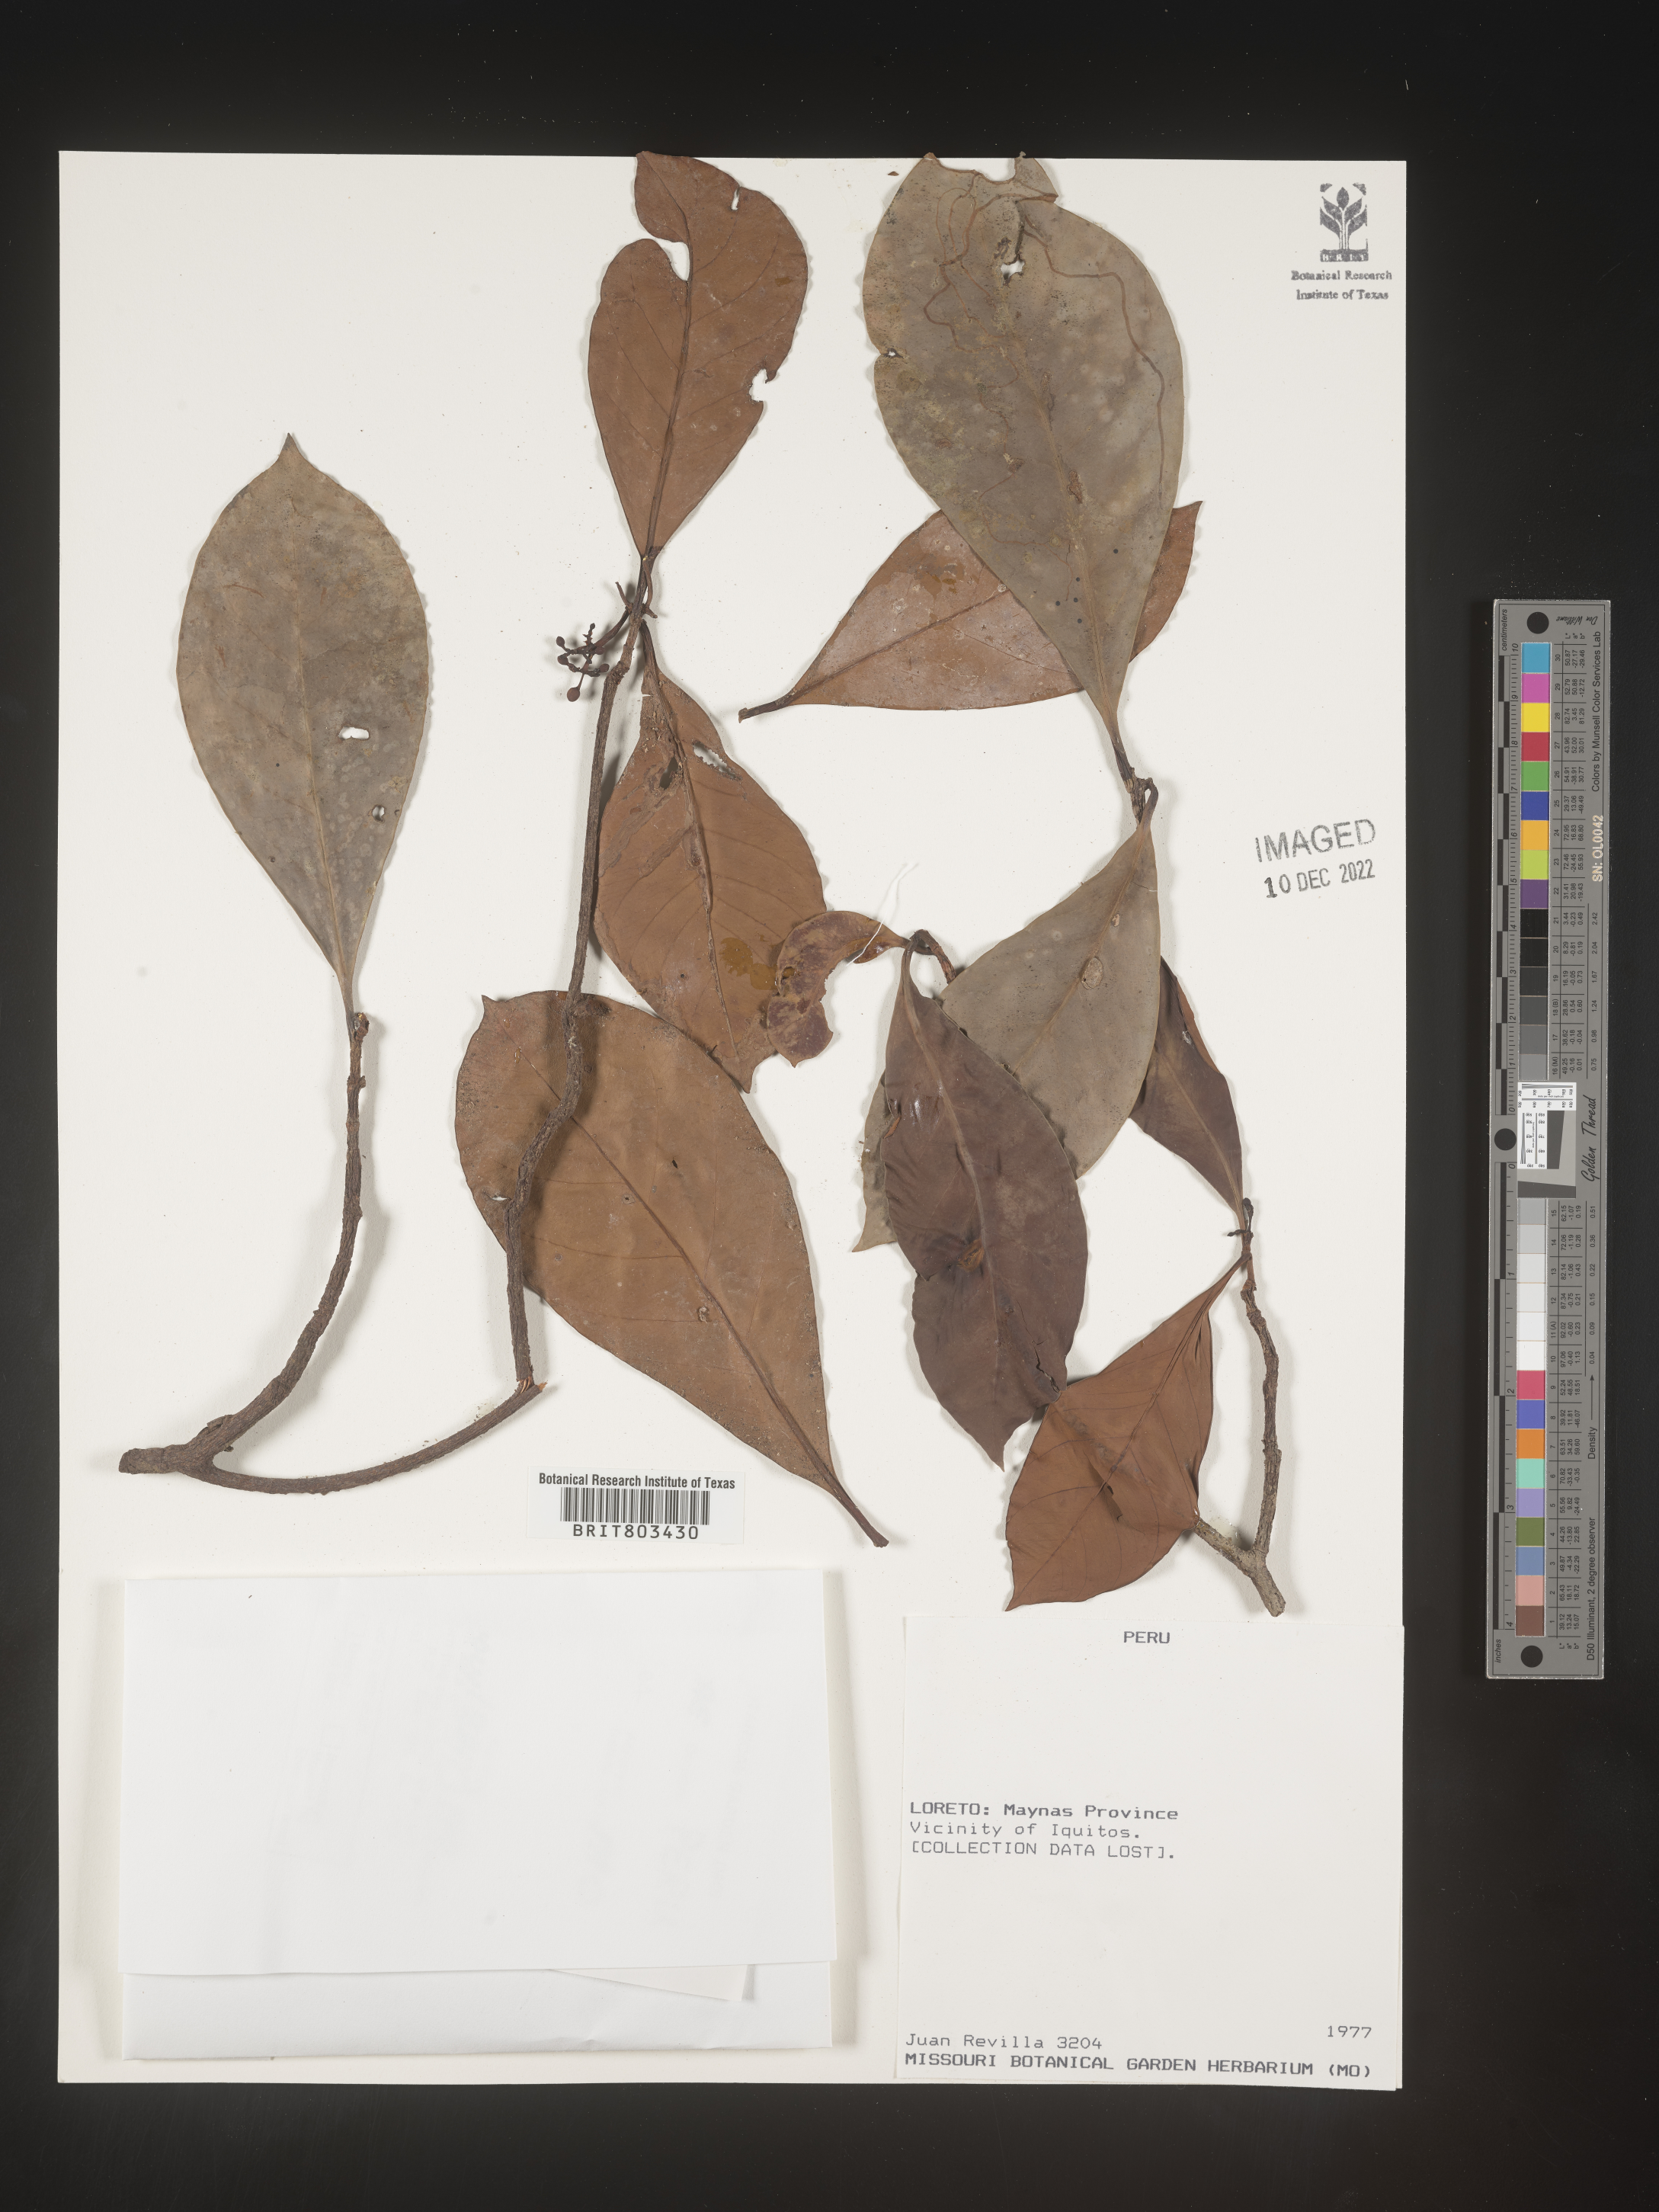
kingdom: Plantae
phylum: Tracheophyta
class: Magnoliopsida
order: Malpighiales
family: Clusiaceae
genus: Tovomita
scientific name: Tovomita
